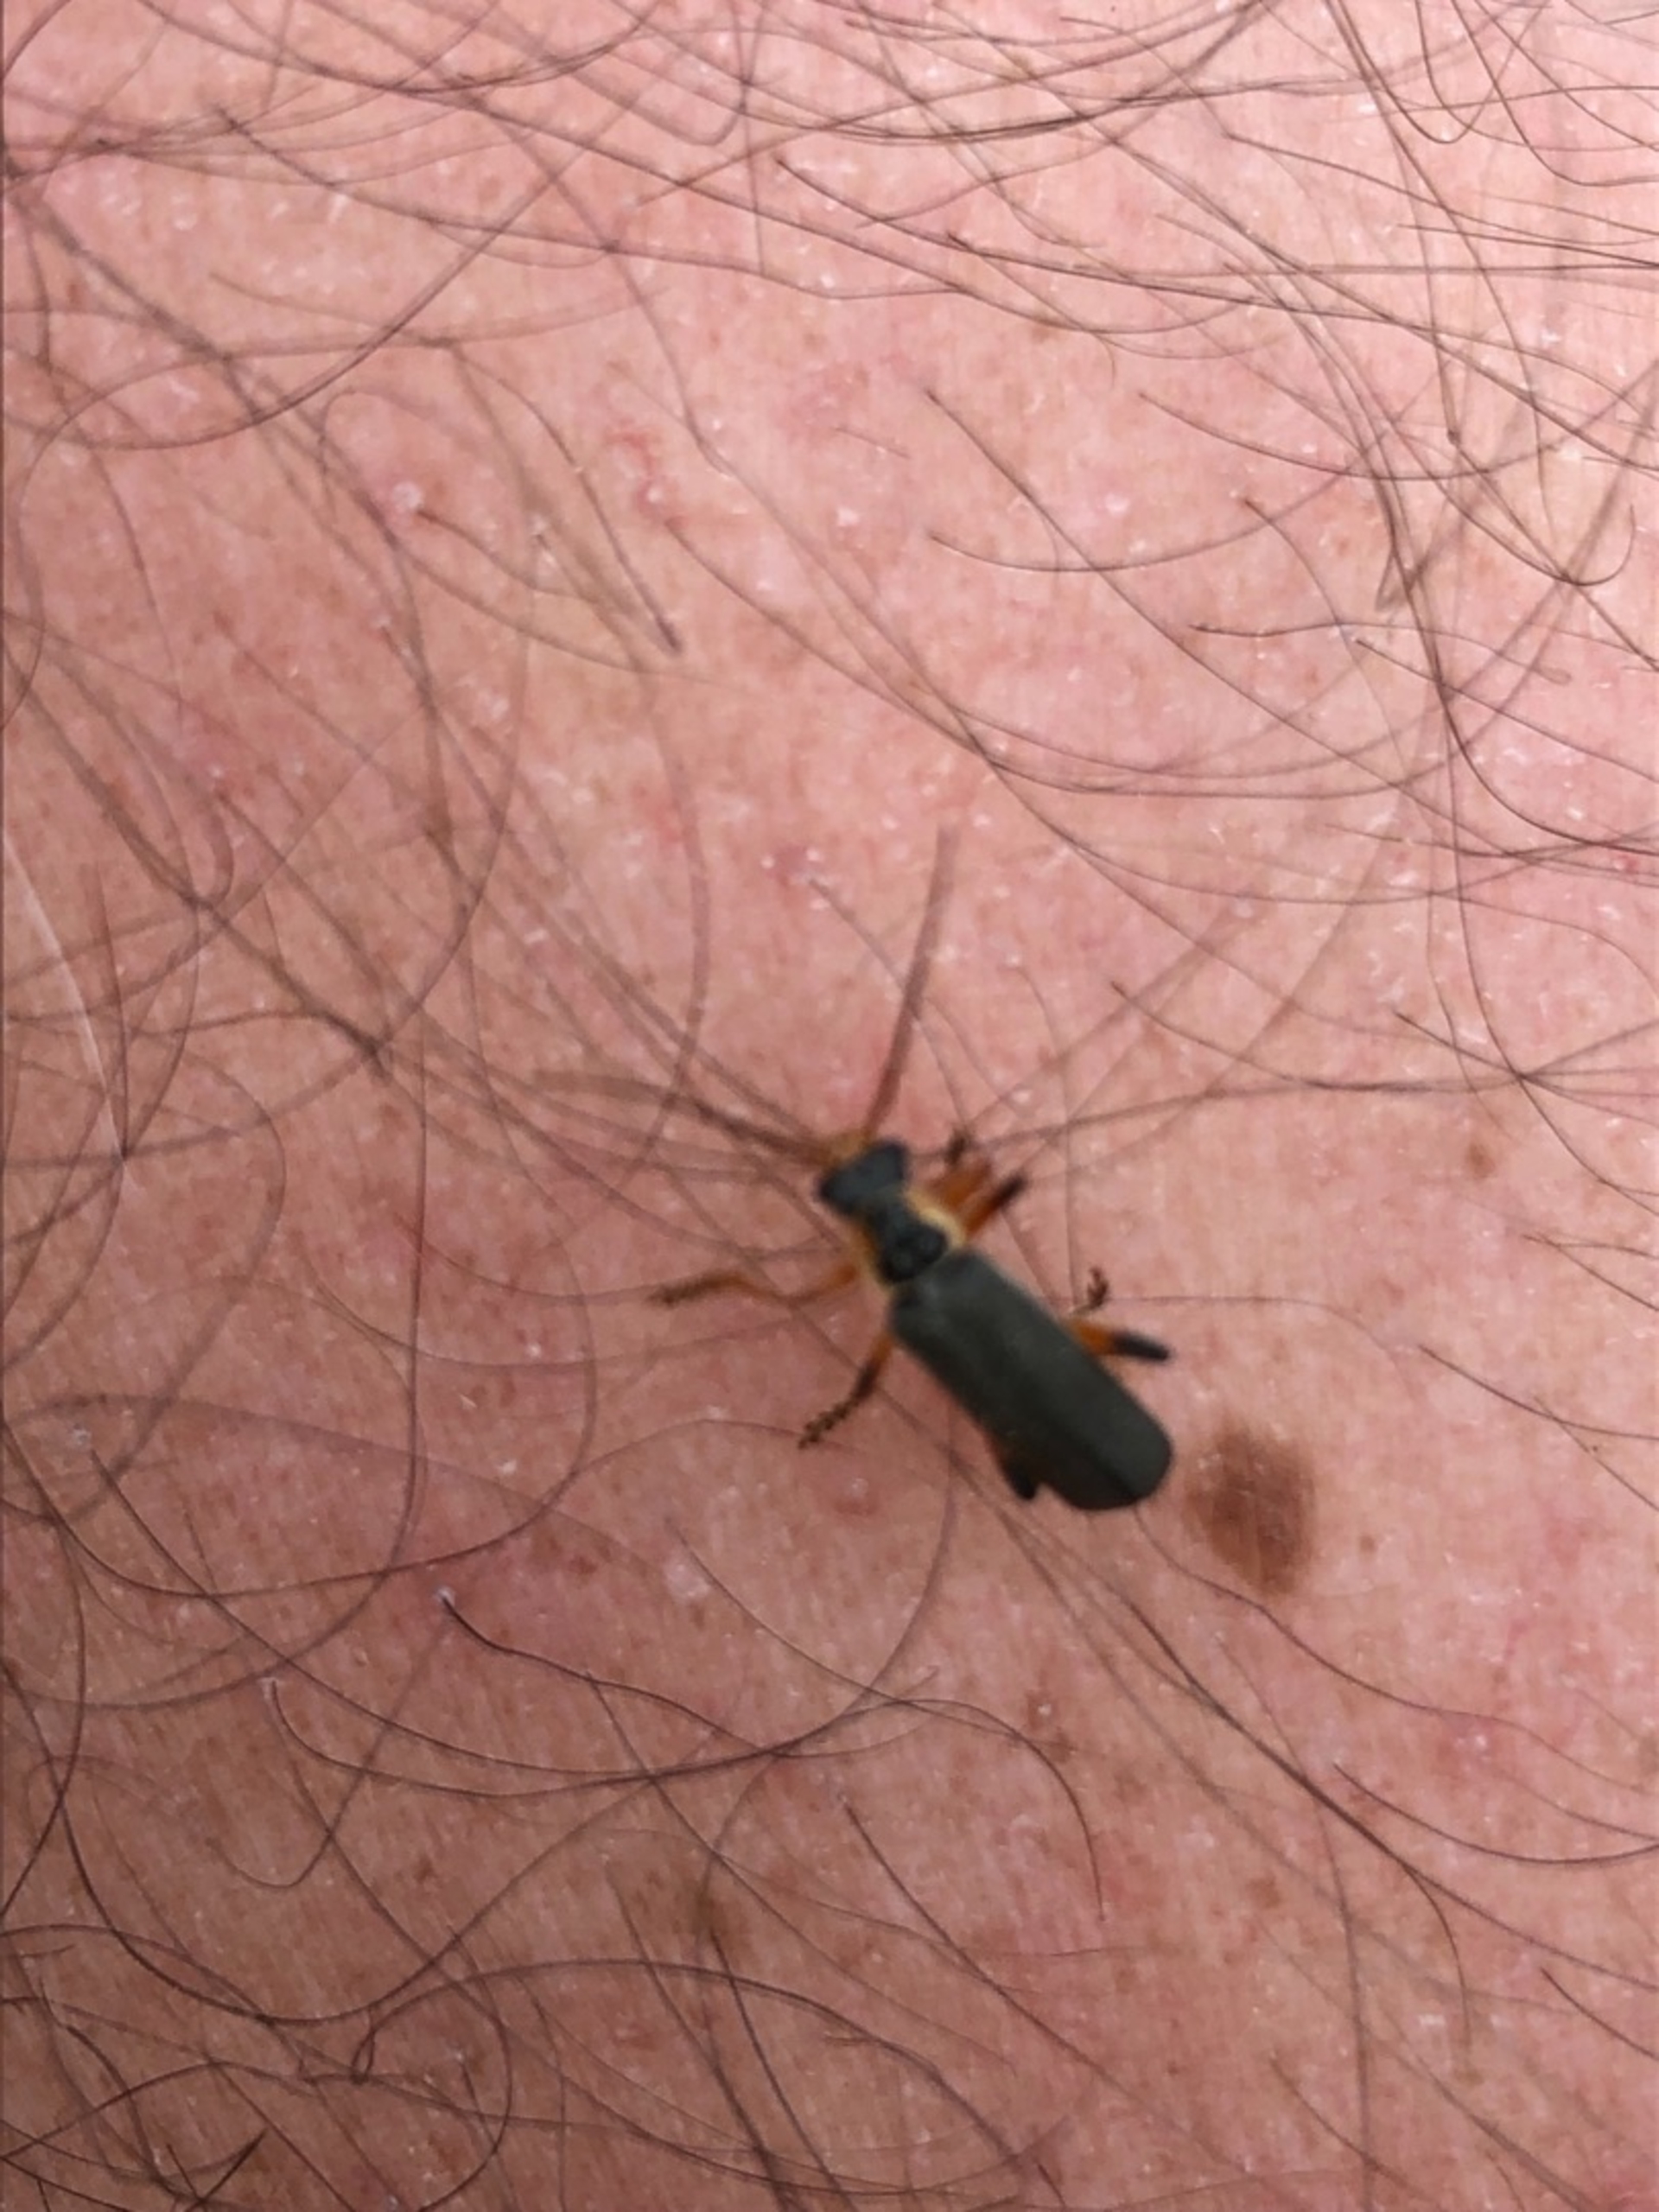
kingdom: Animalia
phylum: Arthropoda
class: Insecta
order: Coleoptera
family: Cantharidae
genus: Cantharis
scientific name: Cantharis nigricans
